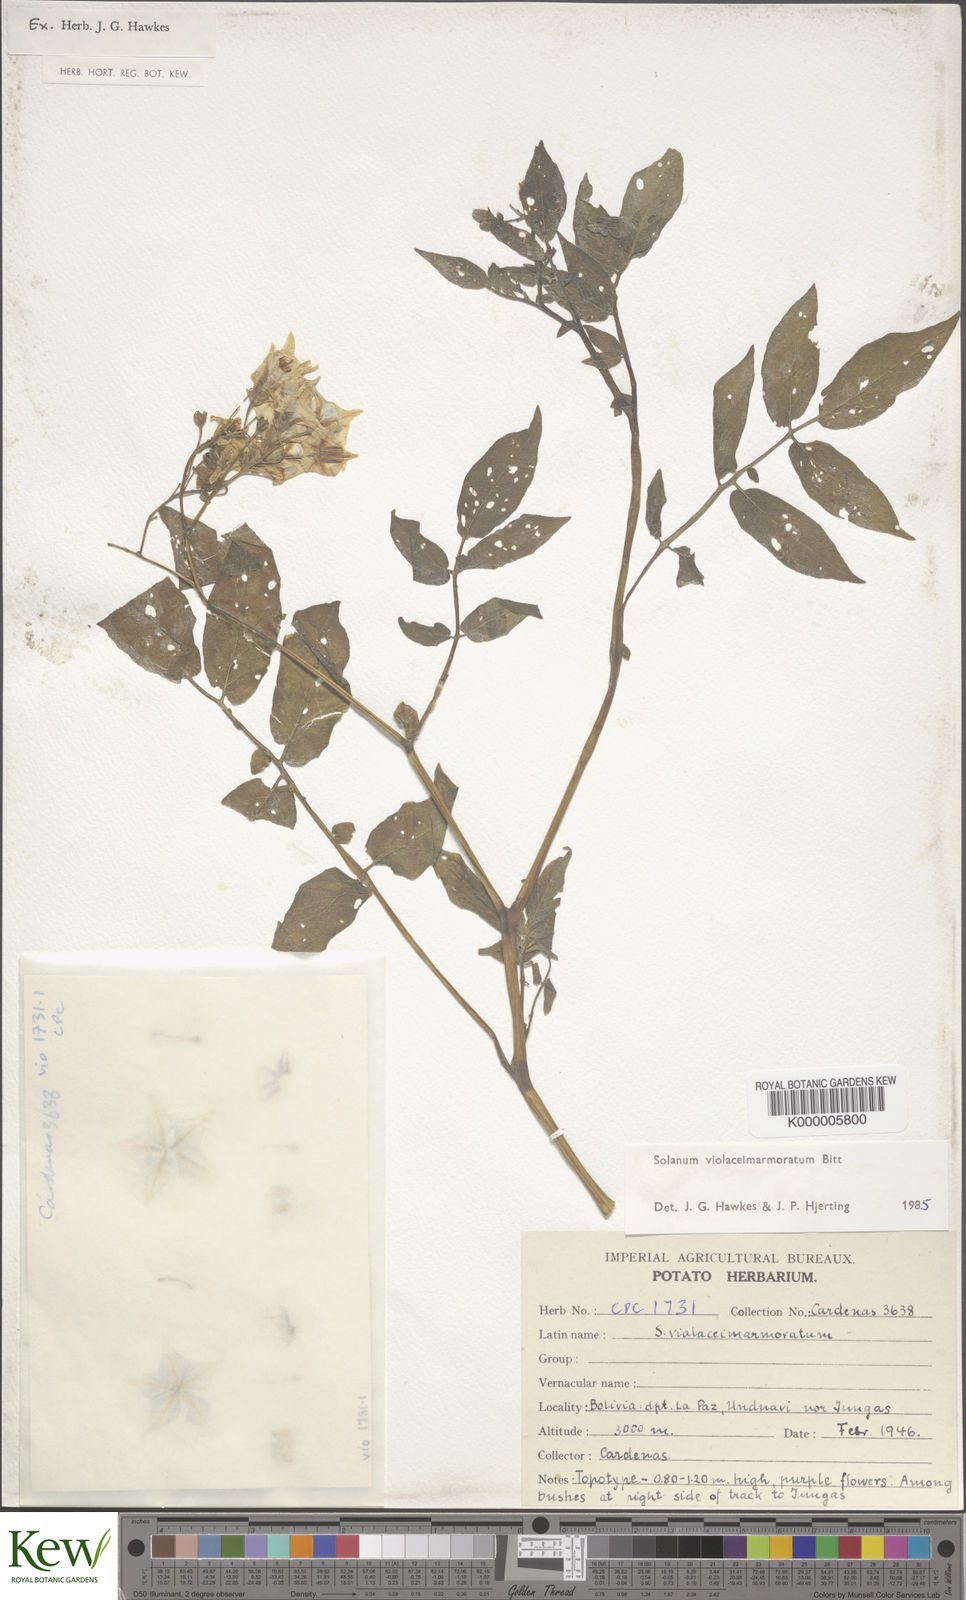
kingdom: Plantae
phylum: Tracheophyta
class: Magnoliopsida
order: Solanales
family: Solanaceae
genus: Solanum
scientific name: Solanum violaceimarmoratum
